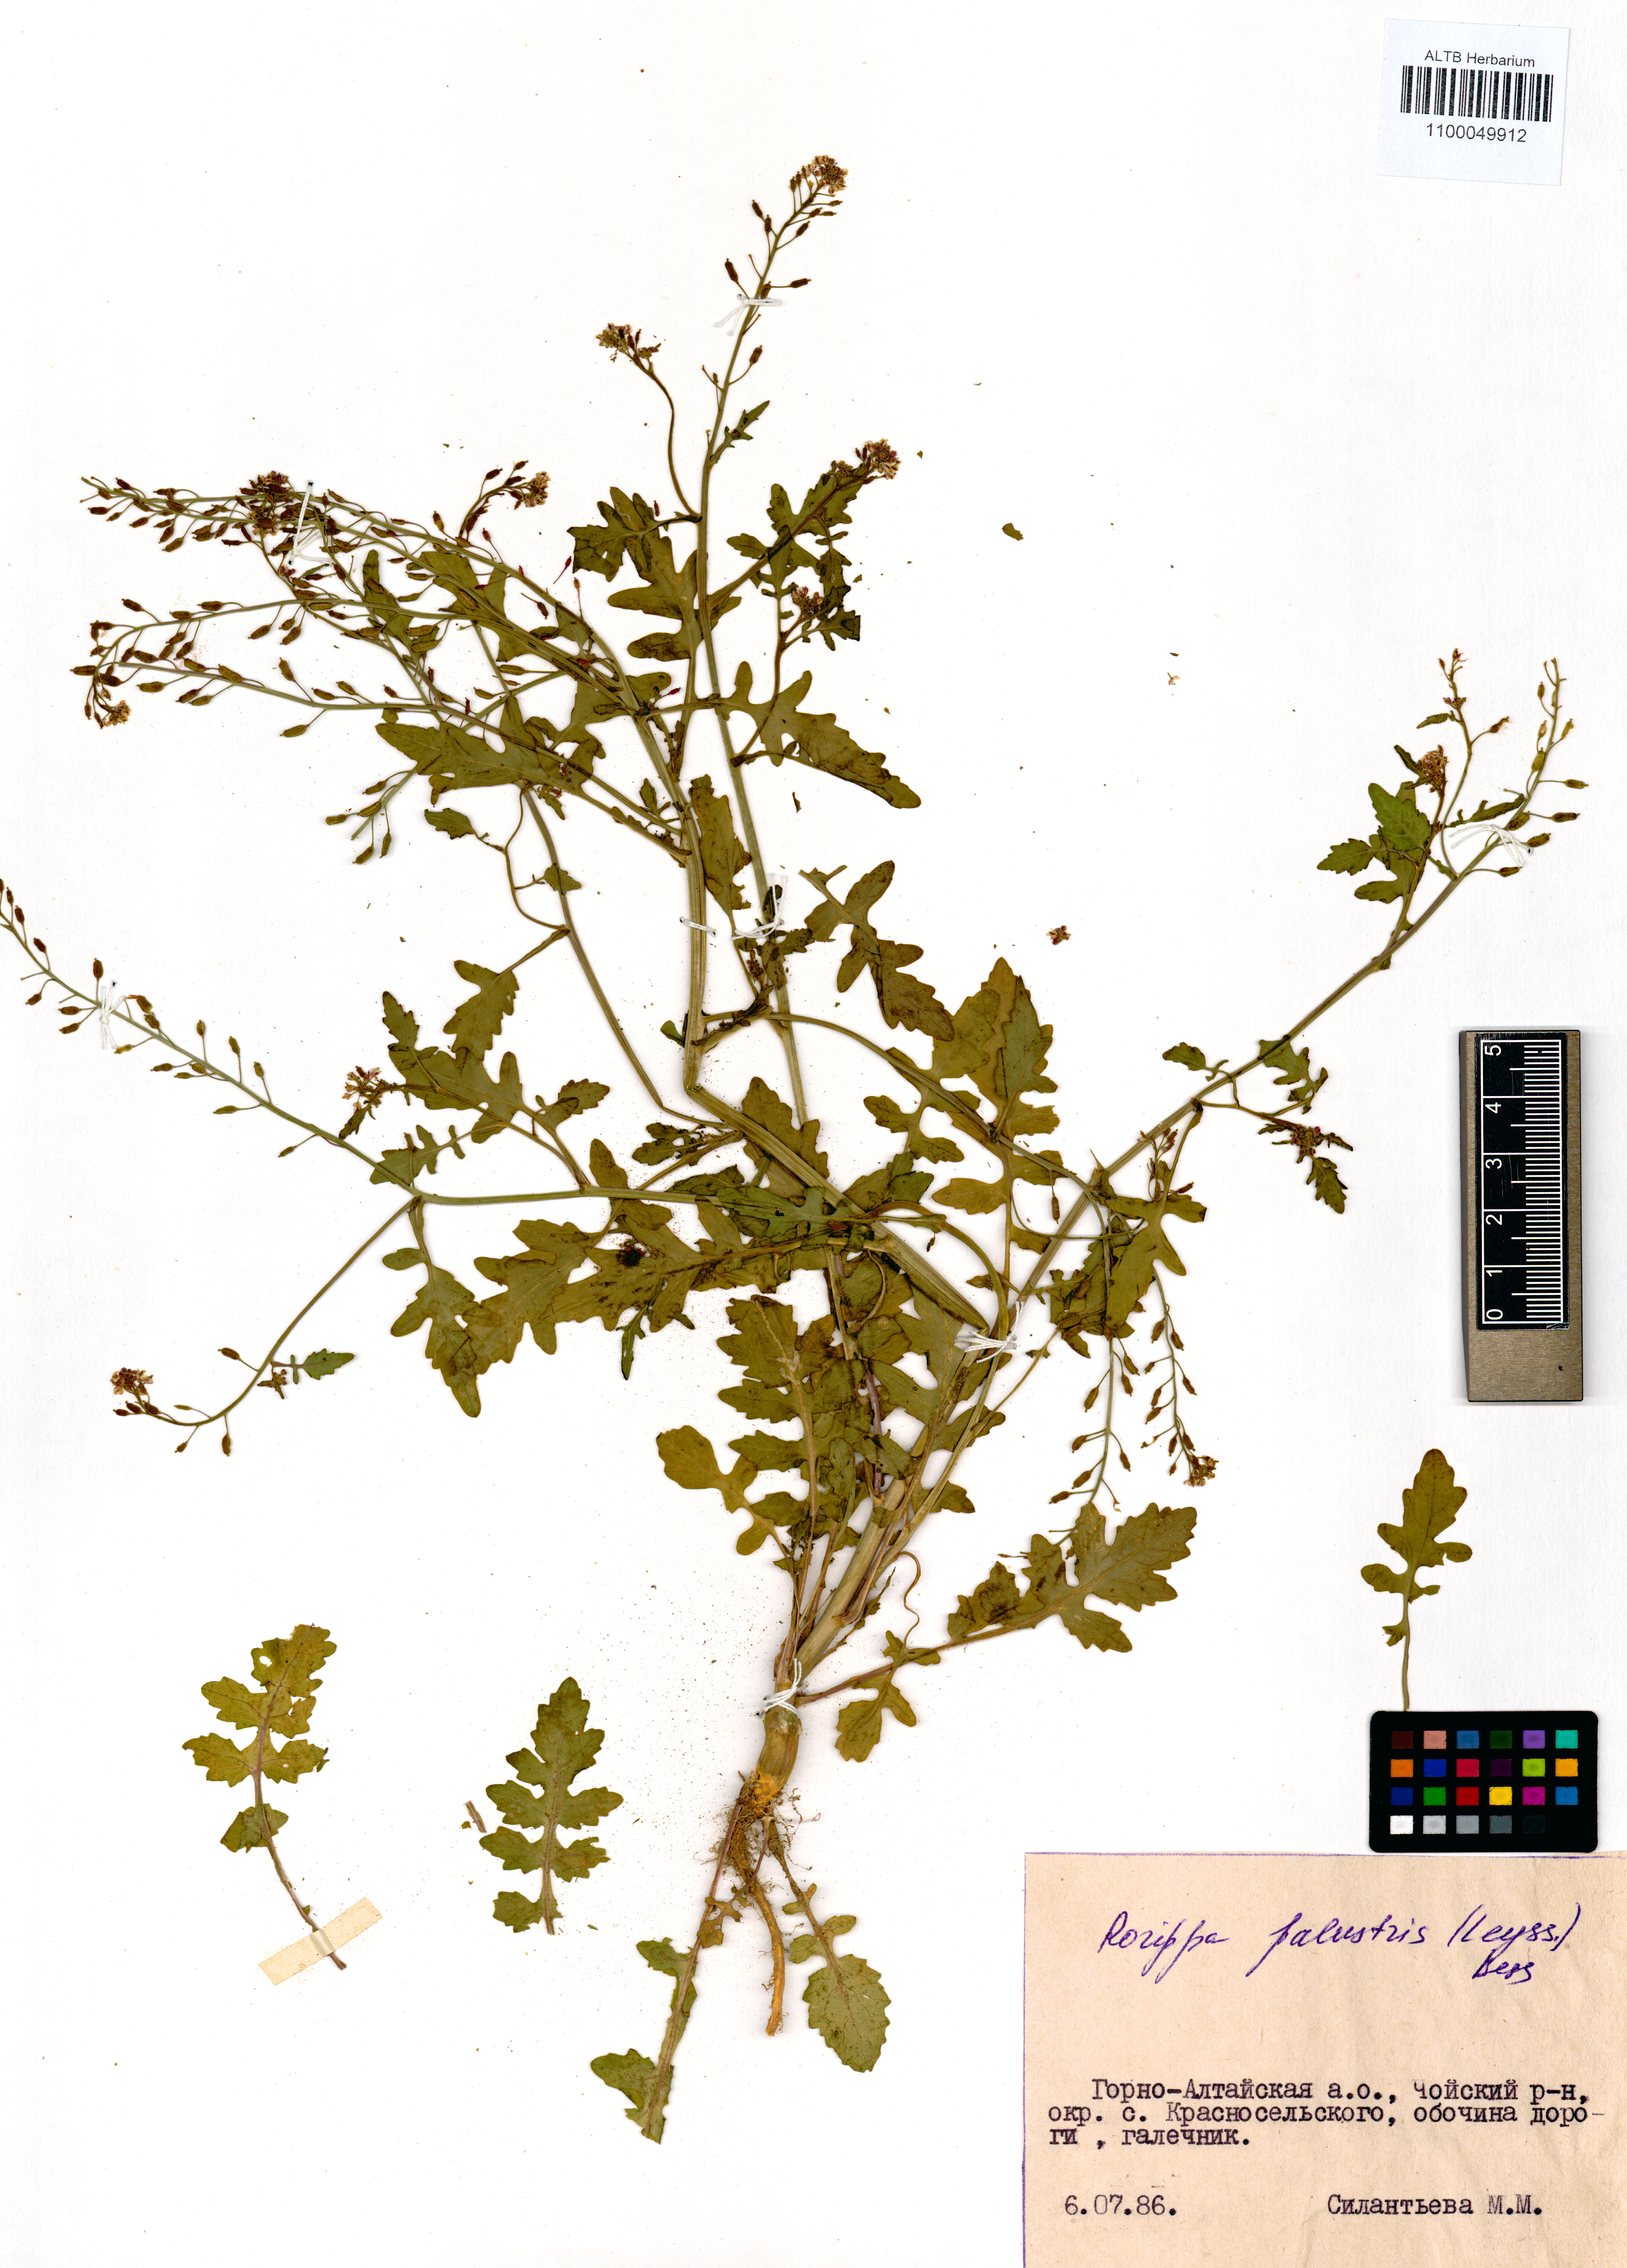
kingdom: Plantae
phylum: Tracheophyta
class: Magnoliopsida
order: Brassicales
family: Brassicaceae
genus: Rorippa
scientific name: Rorippa palustris
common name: Marsh yellow-cress
